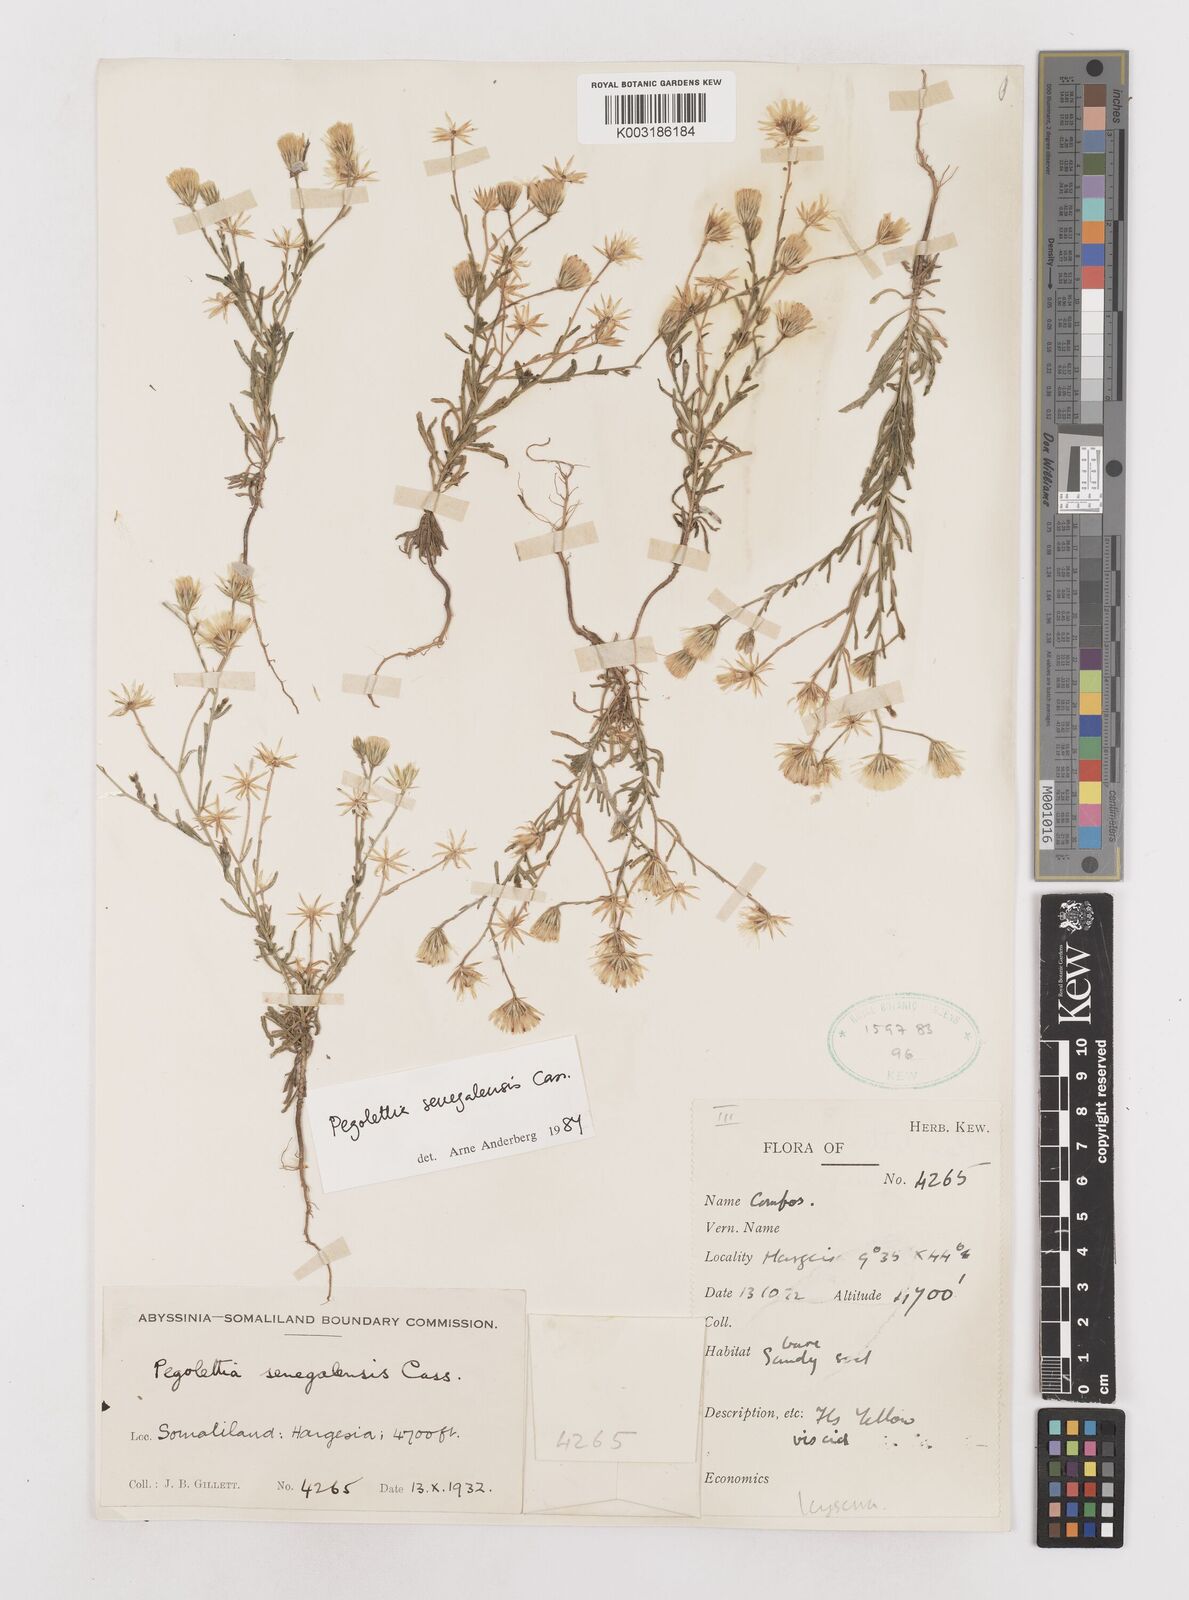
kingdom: Plantae
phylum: Tracheophyta
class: Magnoliopsida
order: Asterales
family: Asteraceae
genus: Pegolettia
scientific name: Pegolettia senegalensis
